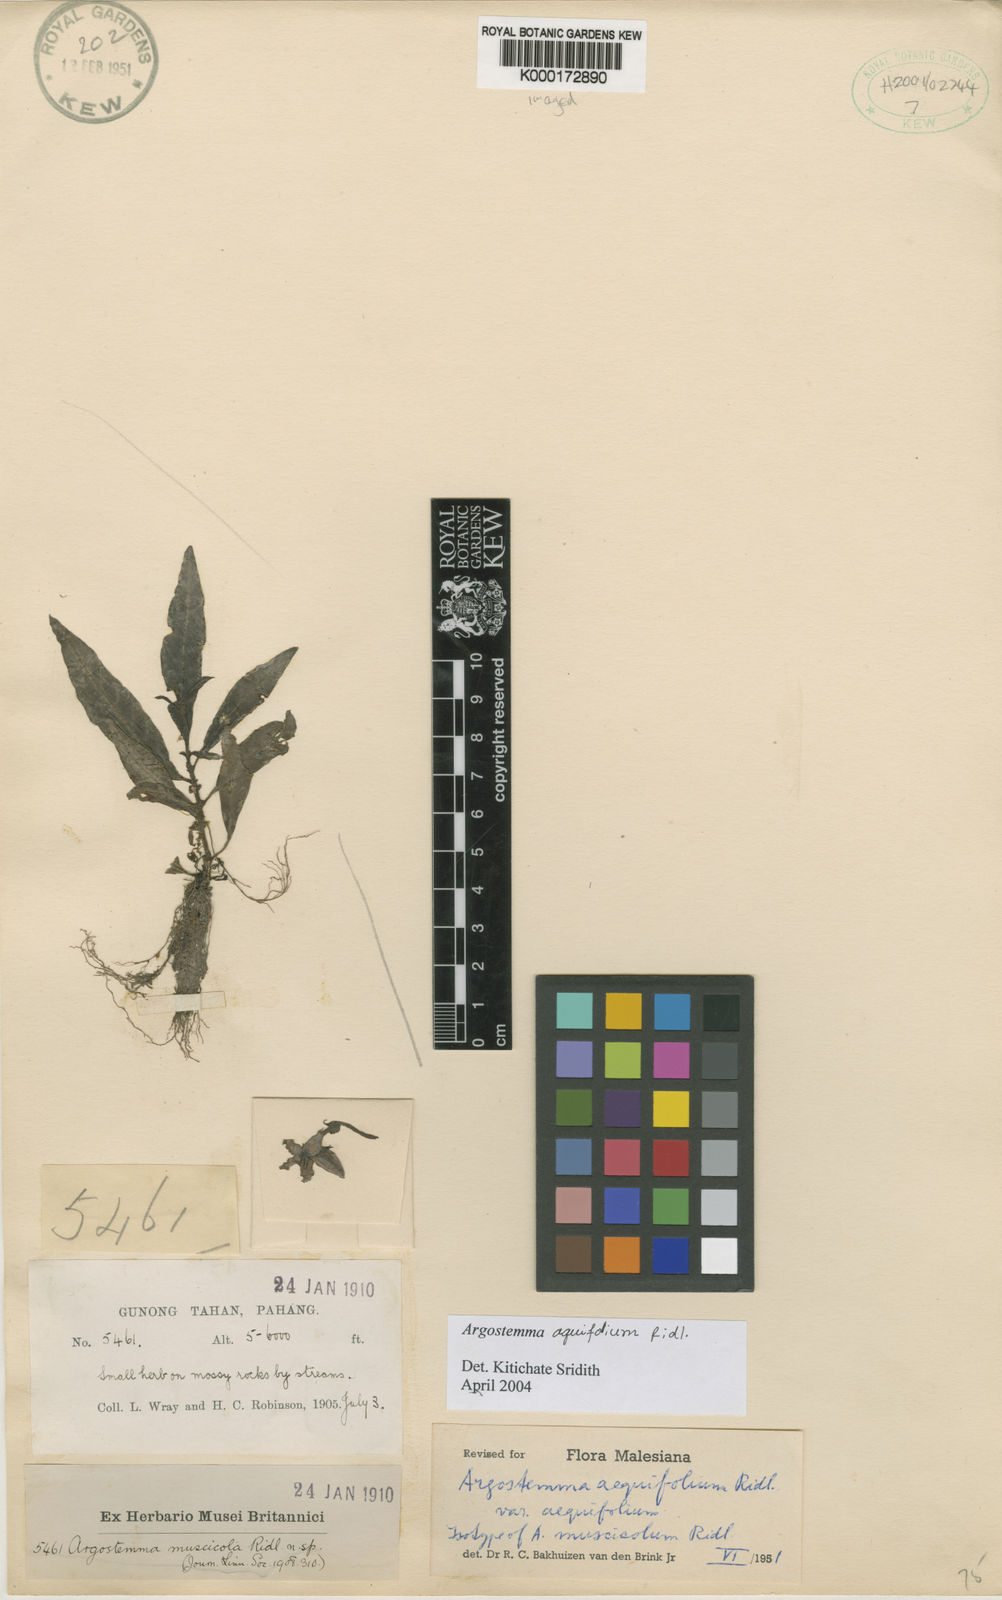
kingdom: Plantae
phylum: Tracheophyta
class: Magnoliopsida
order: Gentianales
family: Rubiaceae
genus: Argostemma
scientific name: Argostemma aequifolium
